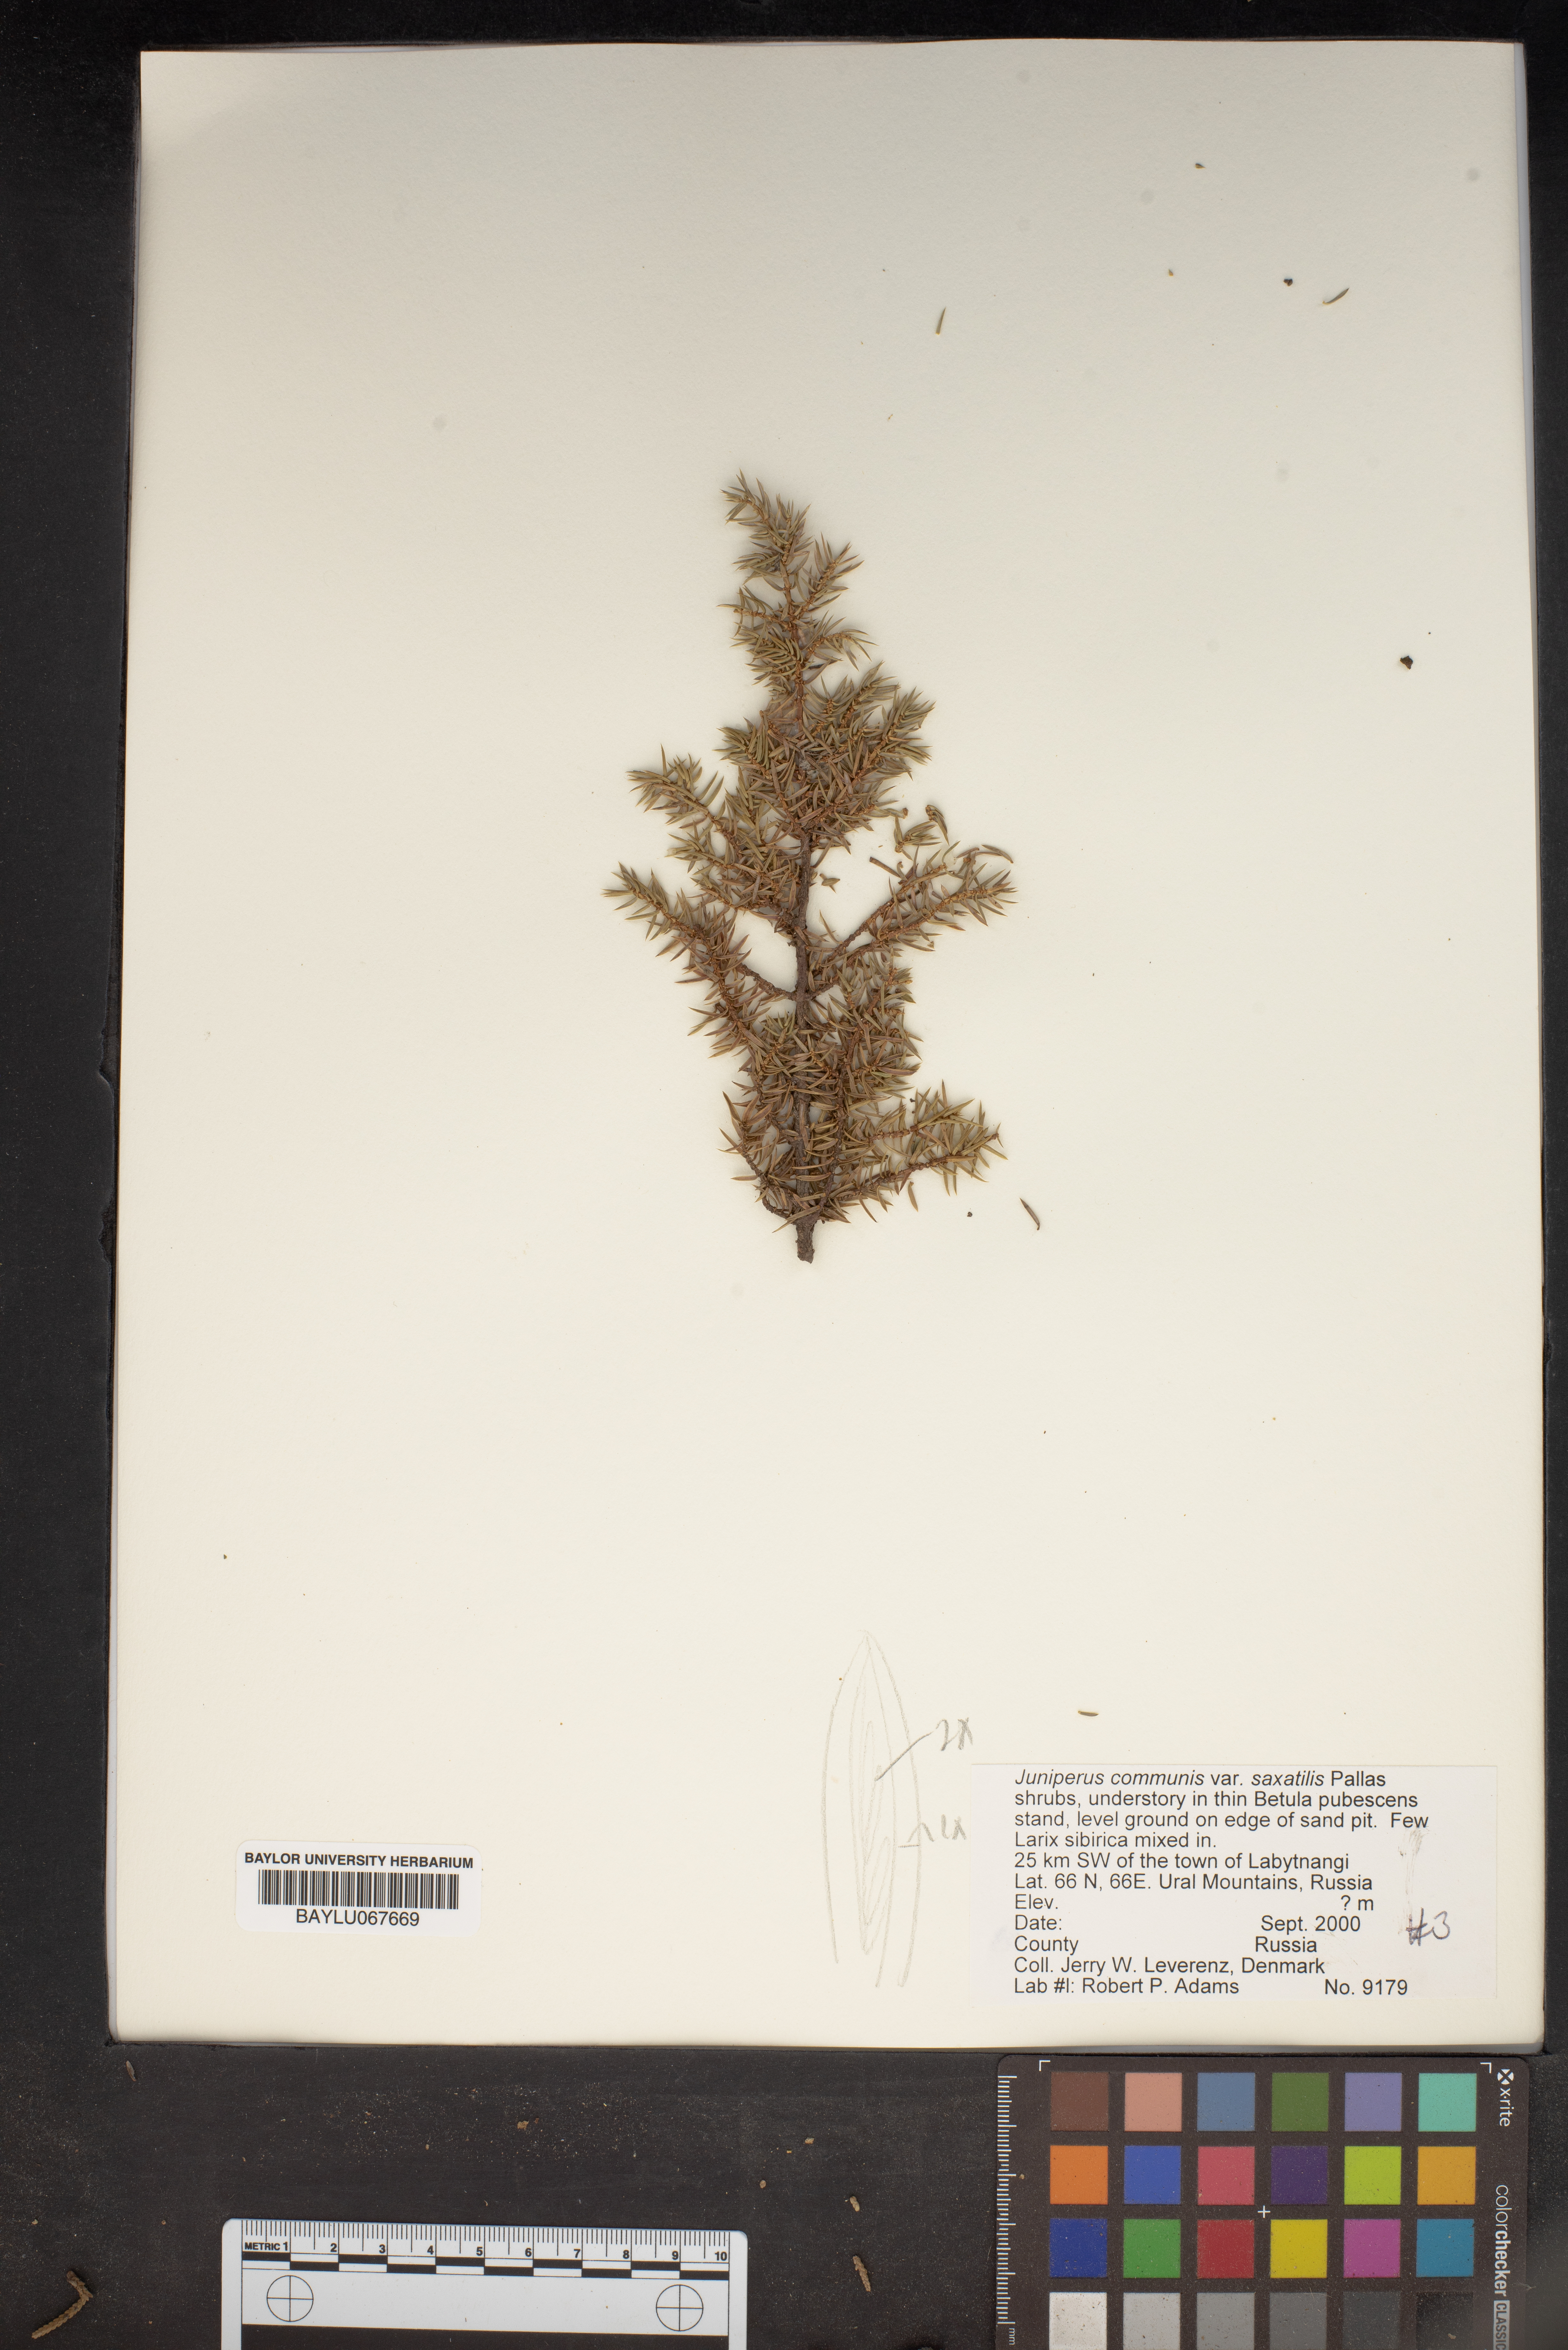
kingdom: Plantae
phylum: Tracheophyta
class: Pinopsida
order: Pinales
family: Cupressaceae
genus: Juniperus
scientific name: Juniperus communis
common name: Common juniper
